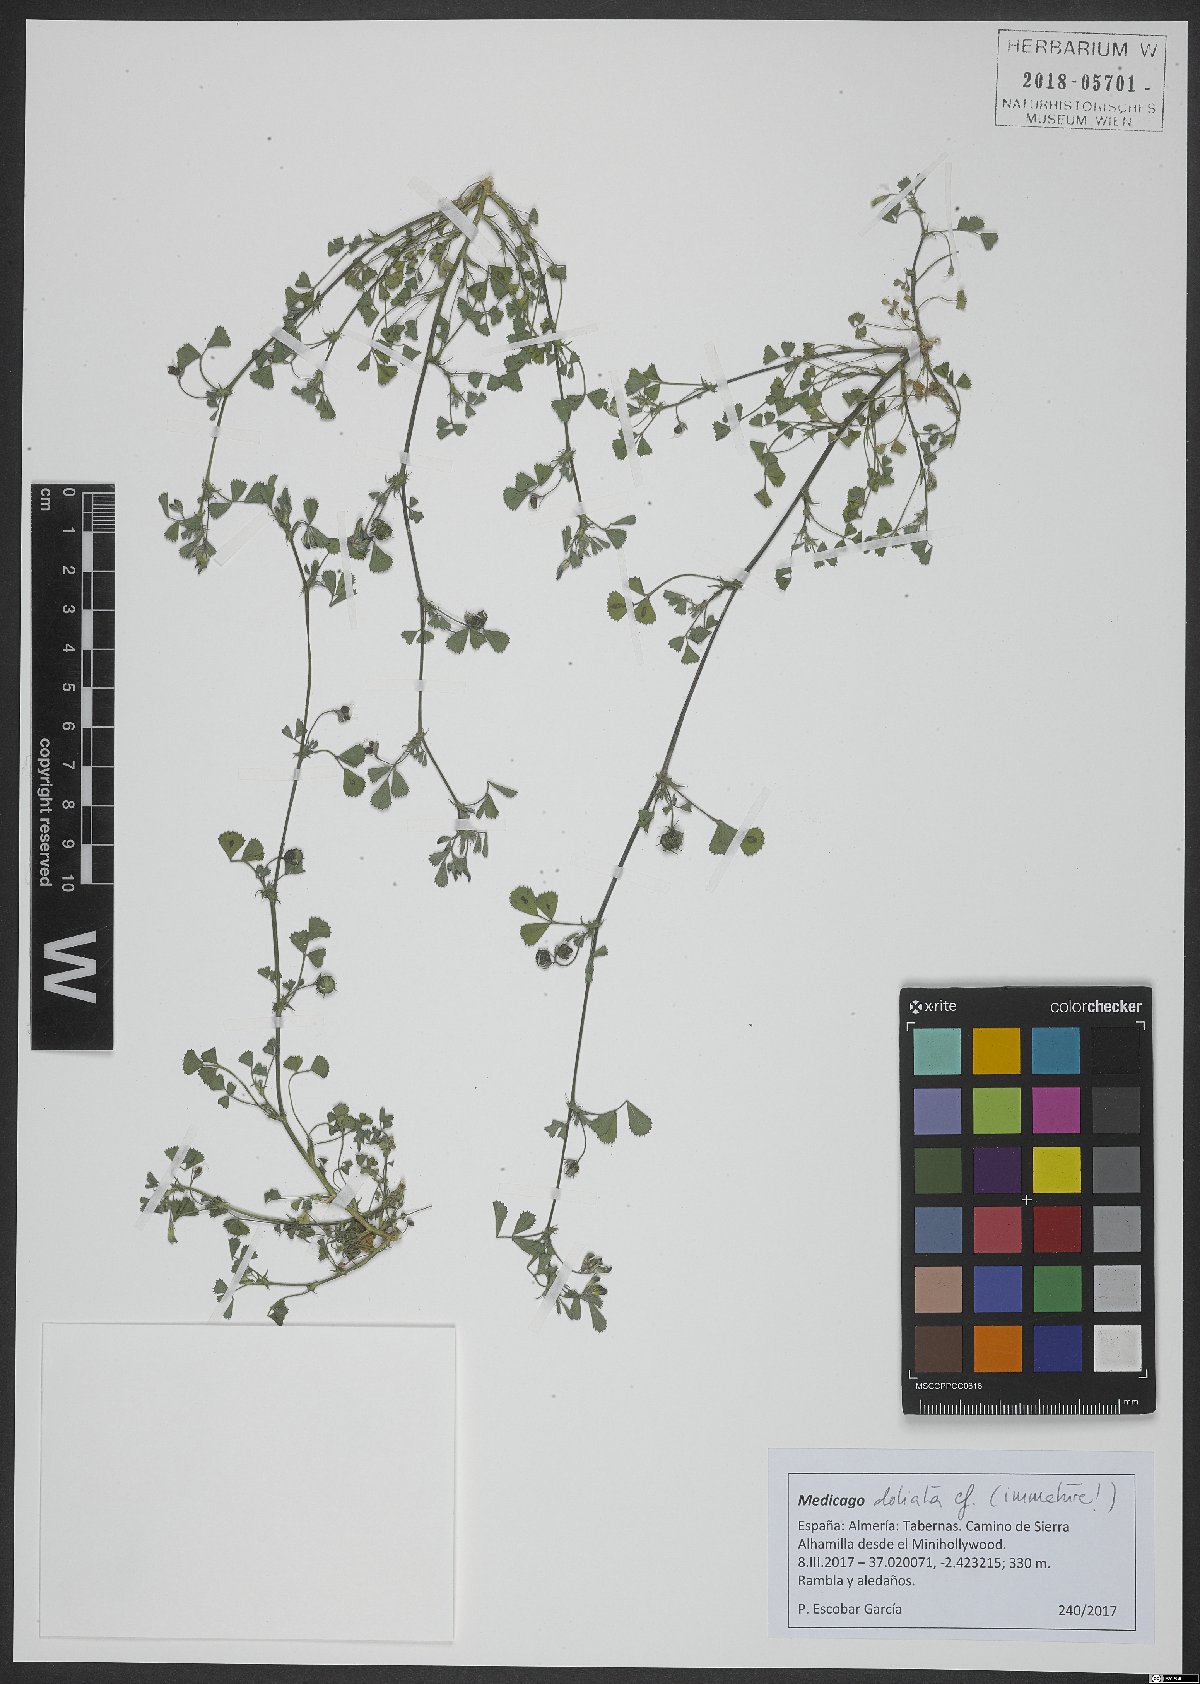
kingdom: Plantae
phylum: Tracheophyta
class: Magnoliopsida
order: Fabales
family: Fabaceae
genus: Medicago
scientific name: Medicago
